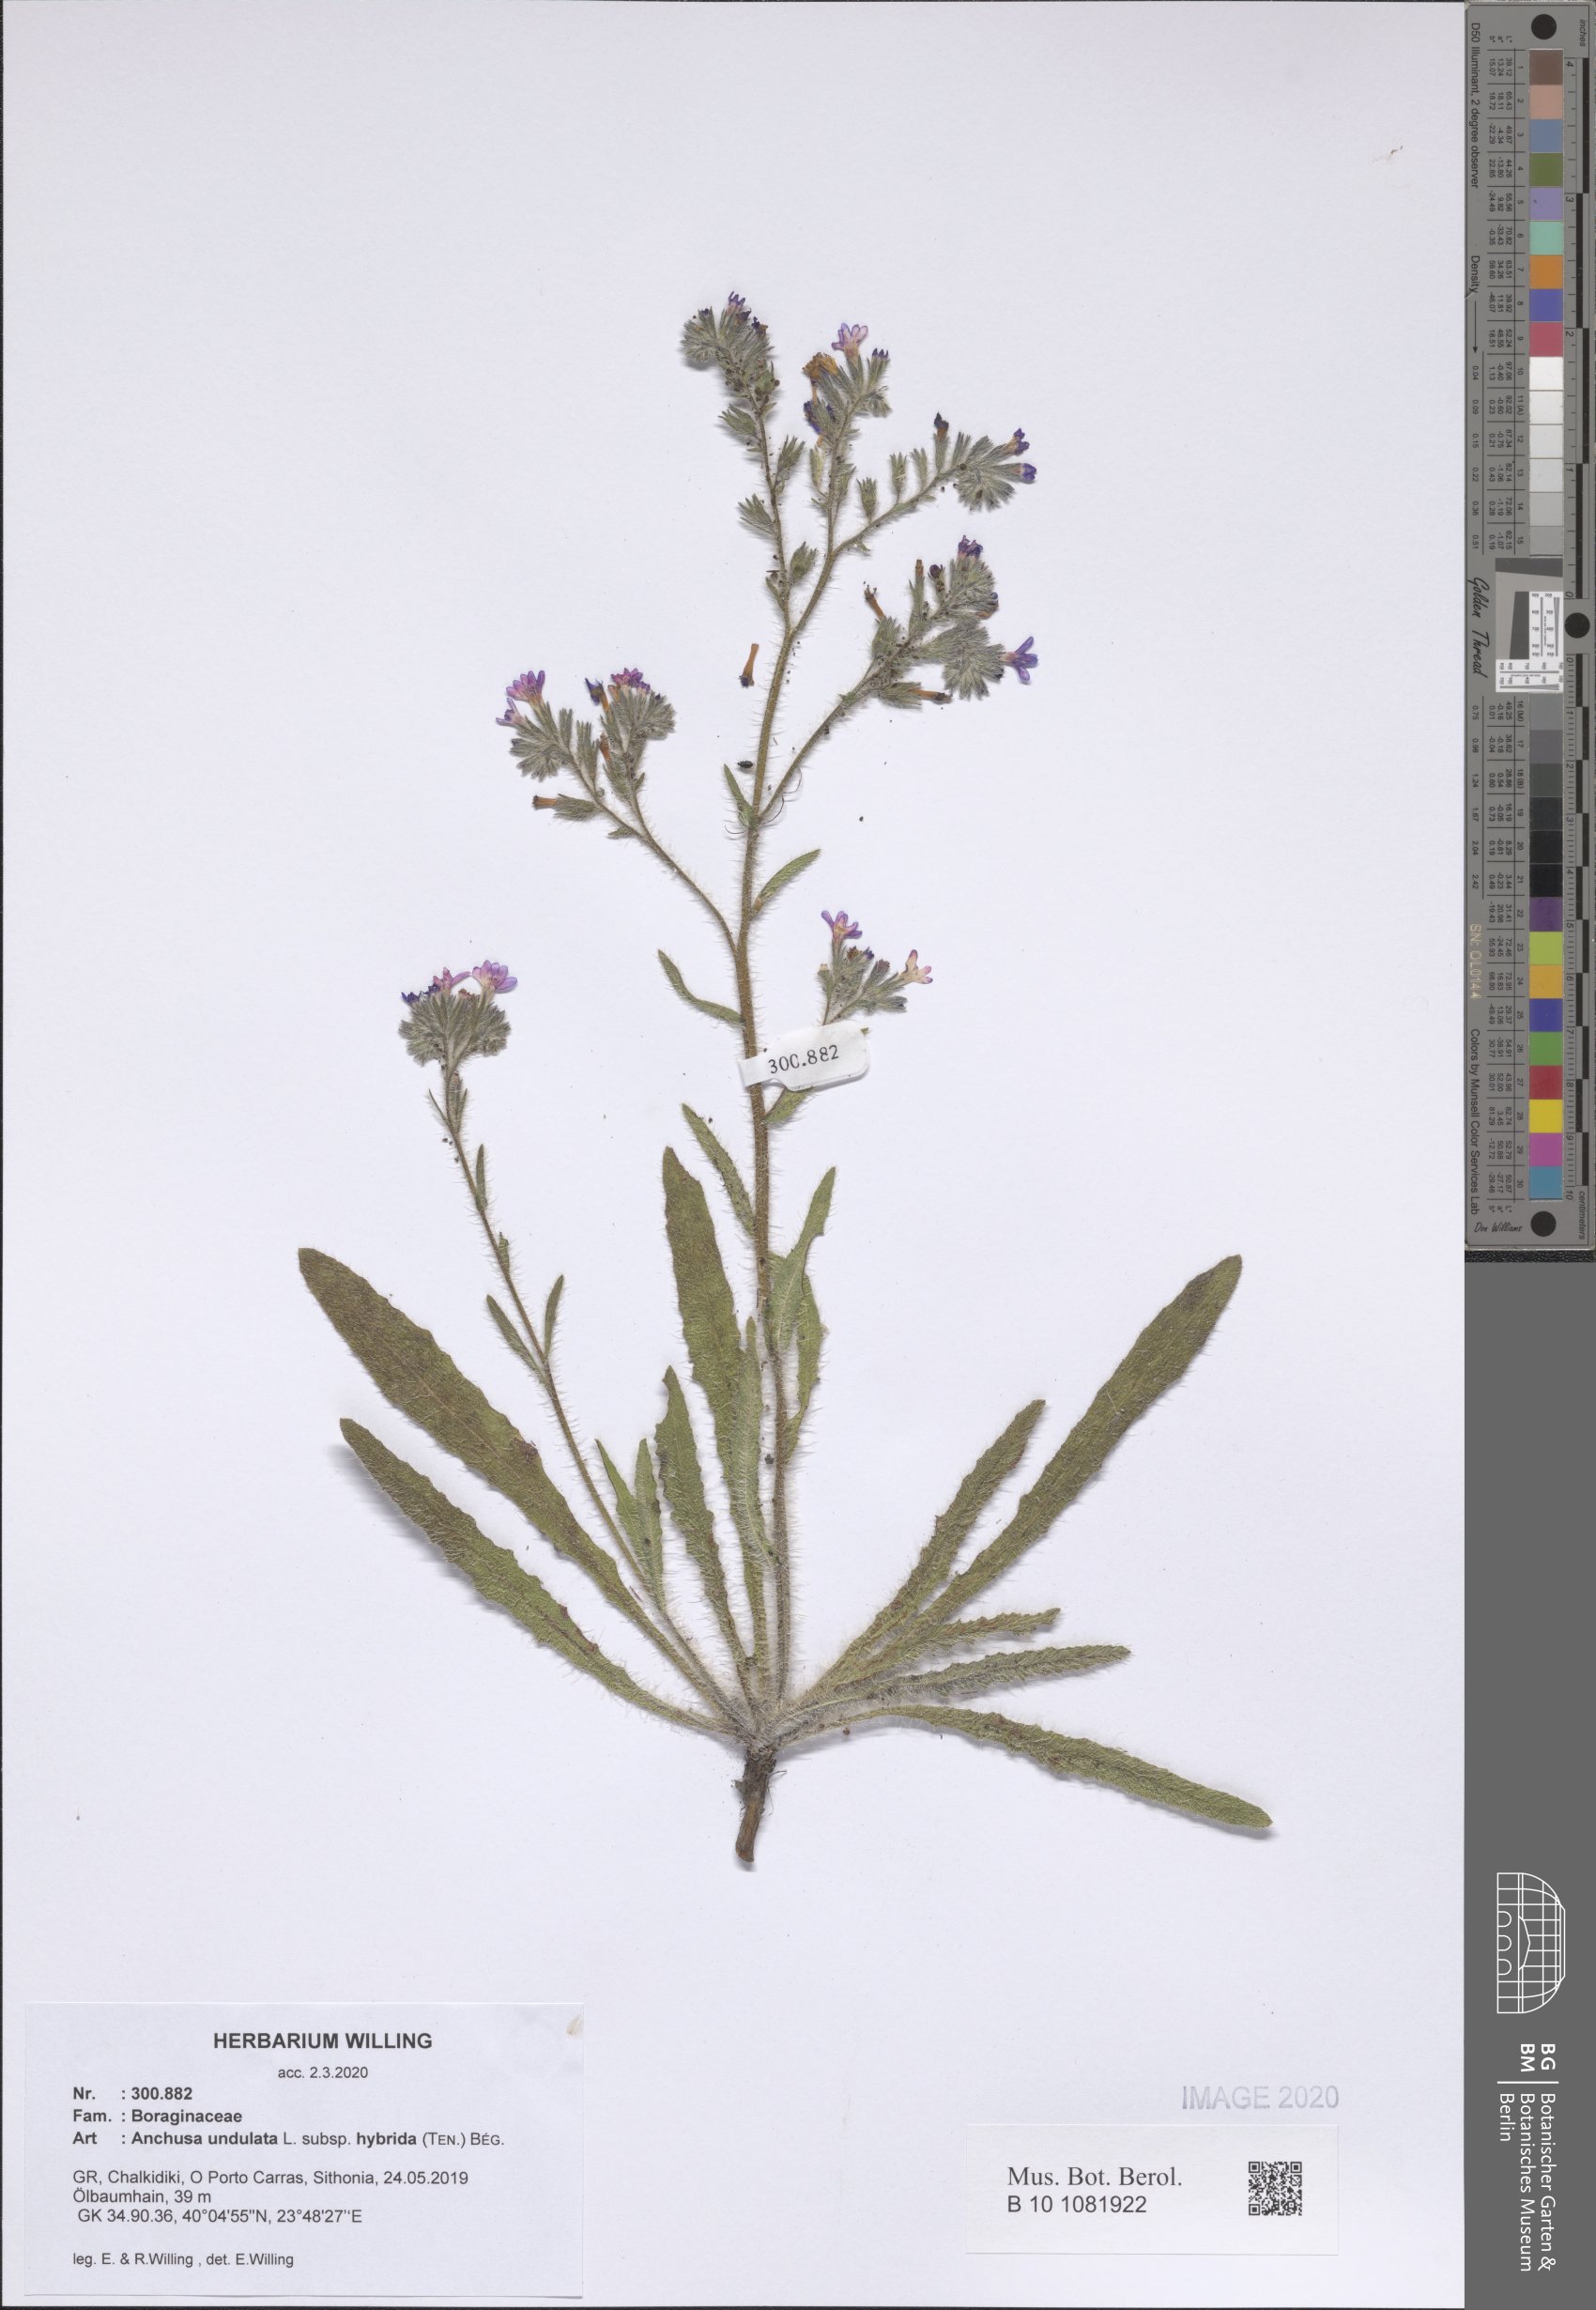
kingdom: Plantae
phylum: Tracheophyta
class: Magnoliopsida
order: Boraginales
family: Boraginaceae
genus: Anchusa
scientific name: Anchusa undulata
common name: Undulate alkanet
